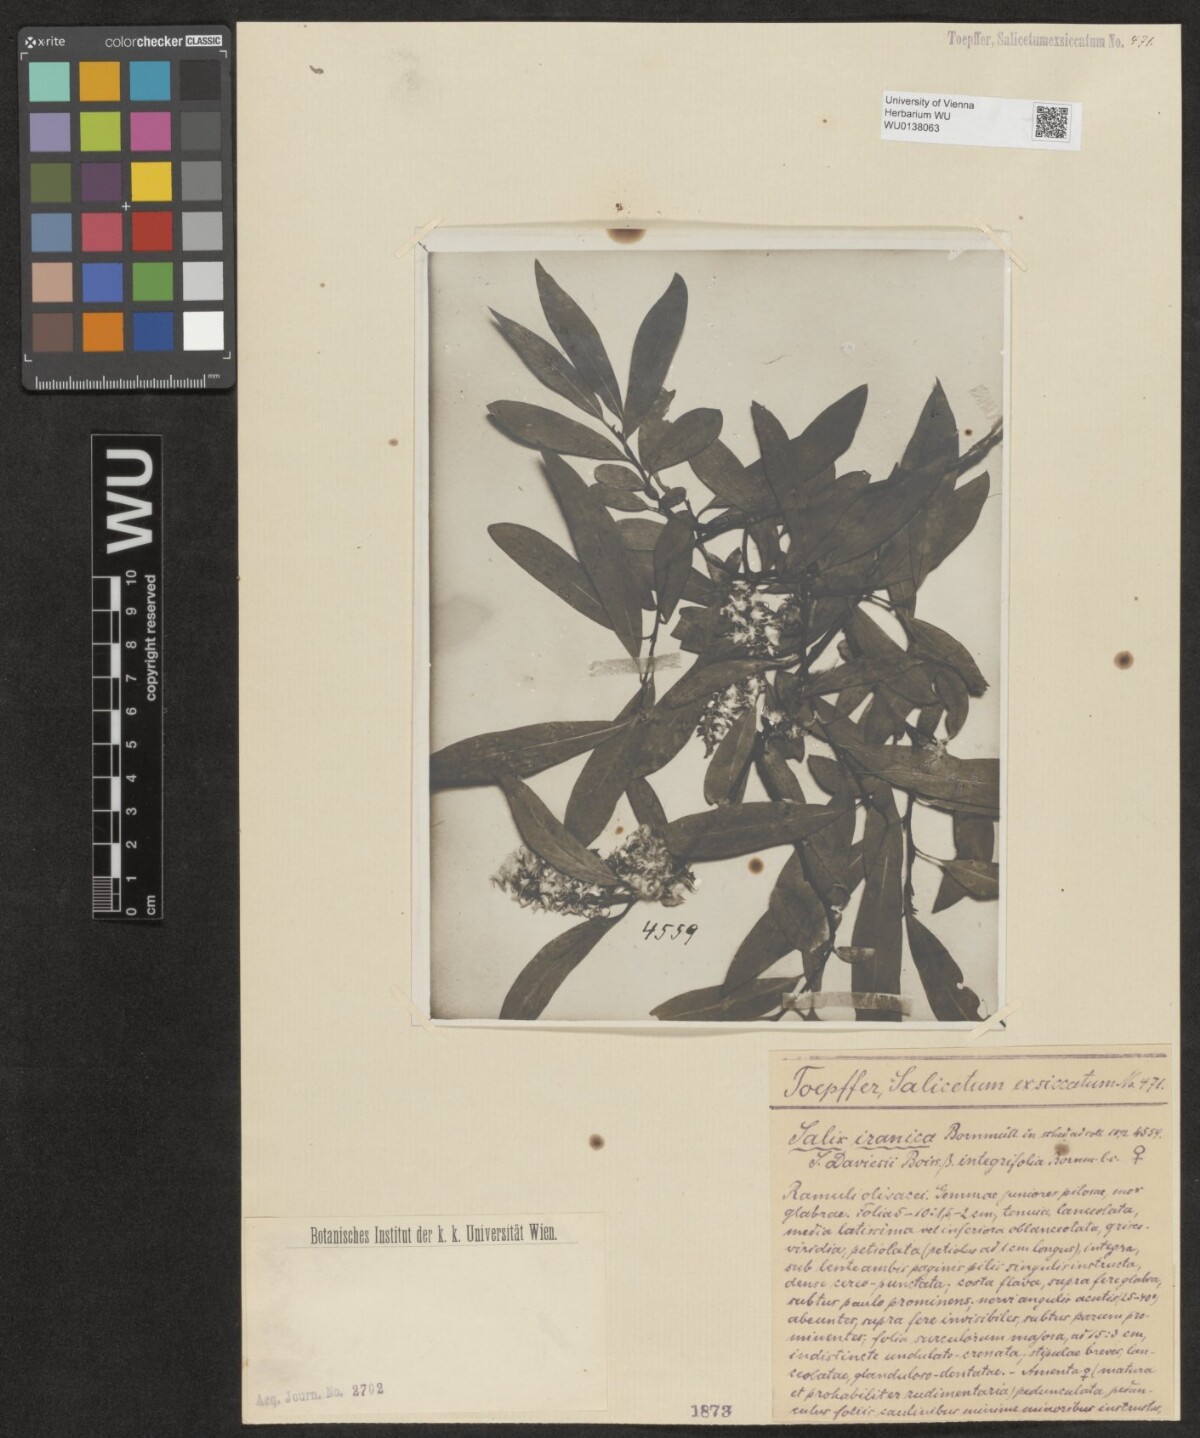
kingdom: Plantae
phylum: Tracheophyta
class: Magnoliopsida
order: Malpighiales
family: Salicaceae
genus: Salix
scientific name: Salix sericocarpa
